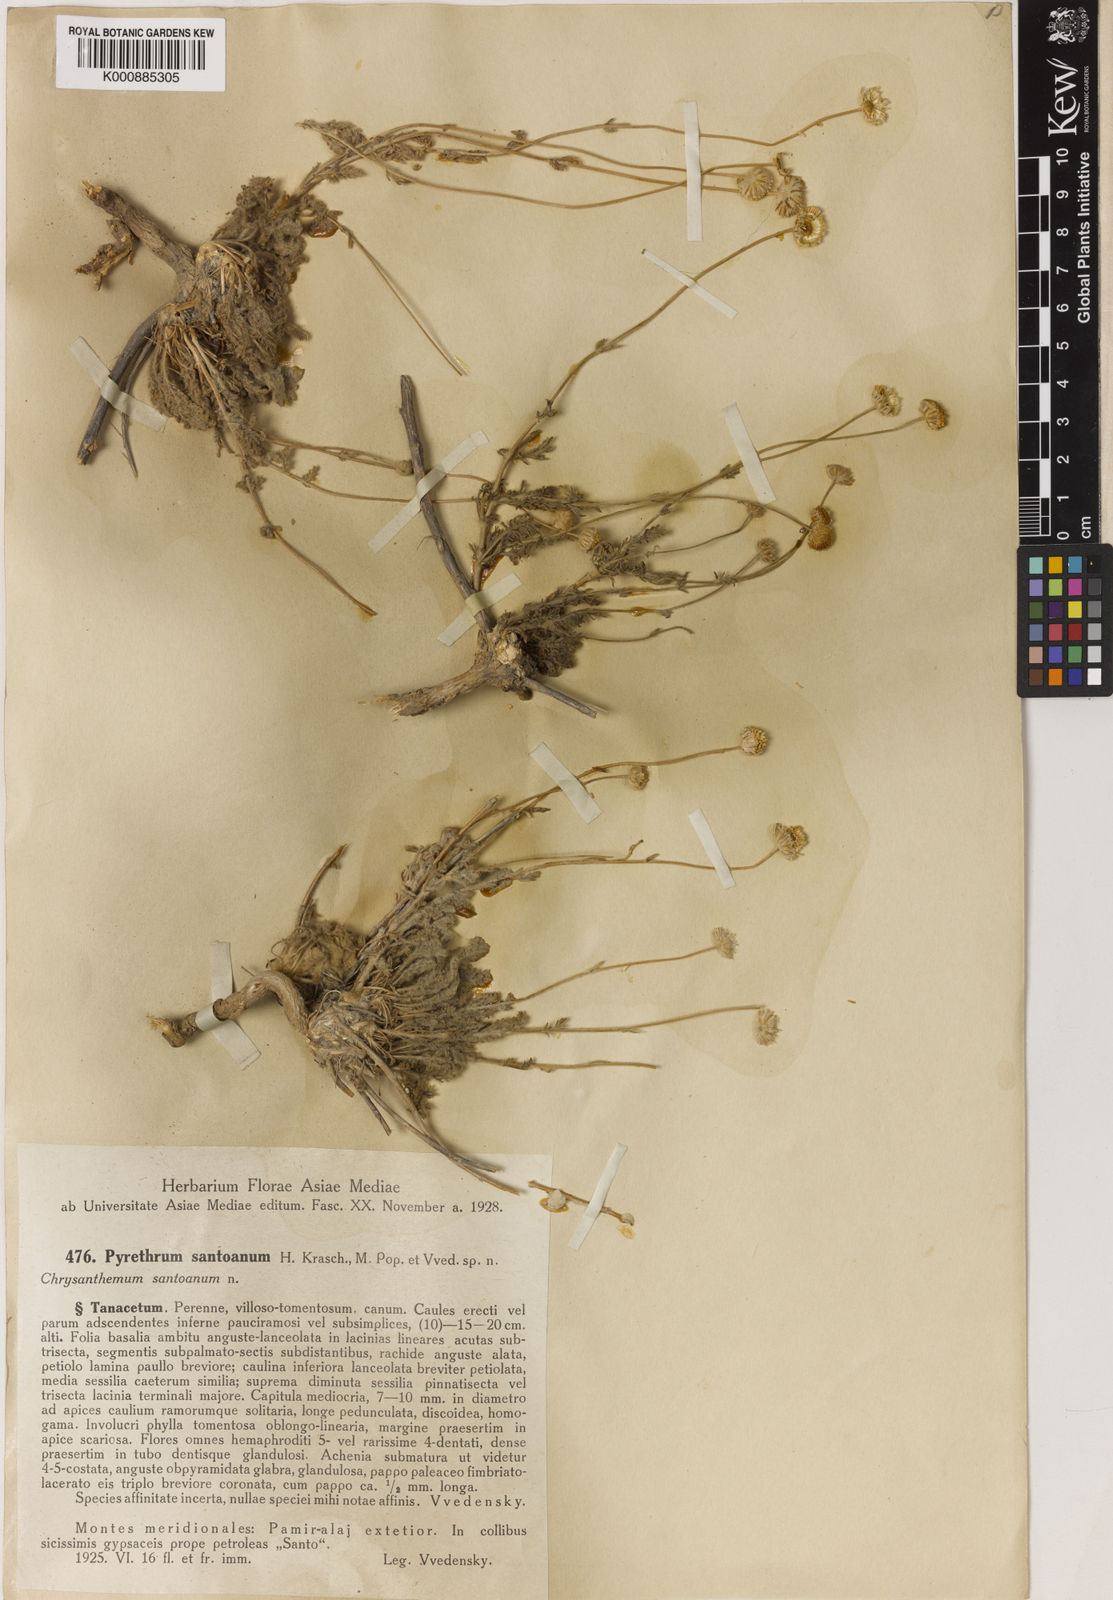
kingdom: Plantae
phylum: Tracheophyta
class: Magnoliopsida
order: Asterales
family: Asteraceae
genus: Tanacetopsis
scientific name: Tanacetopsis
